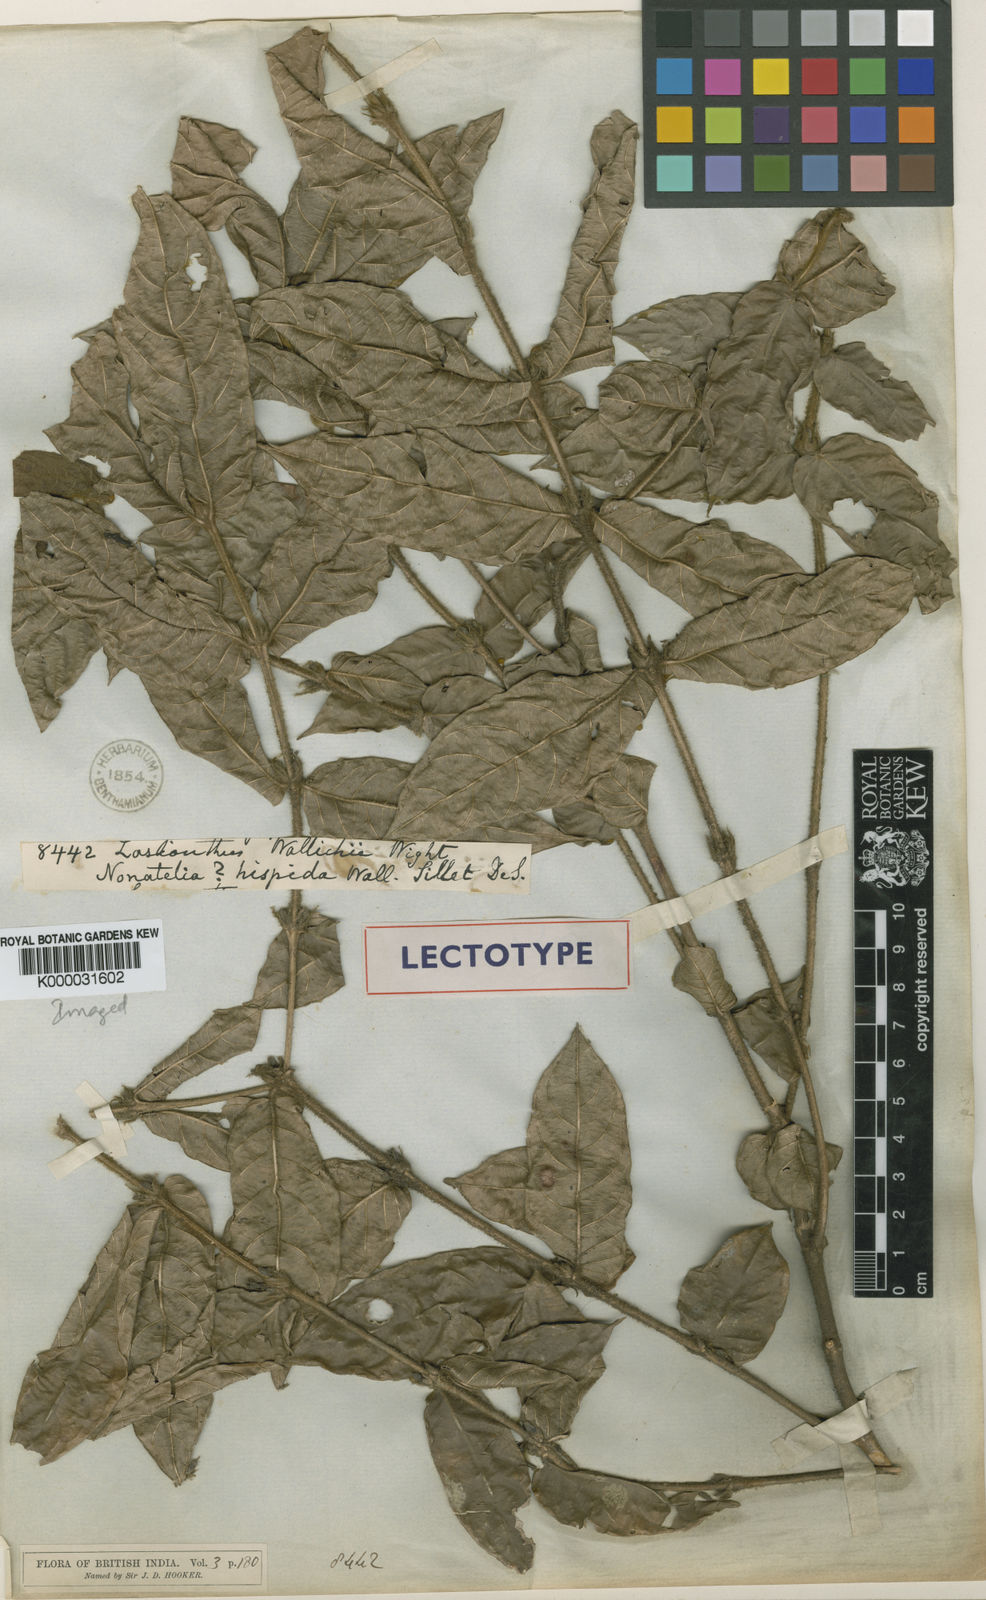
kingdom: Plantae
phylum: Tracheophyta
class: Magnoliopsida
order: Gentianales
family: Rubiaceae
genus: Lasianthus
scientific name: Lasianthus attenuatus
